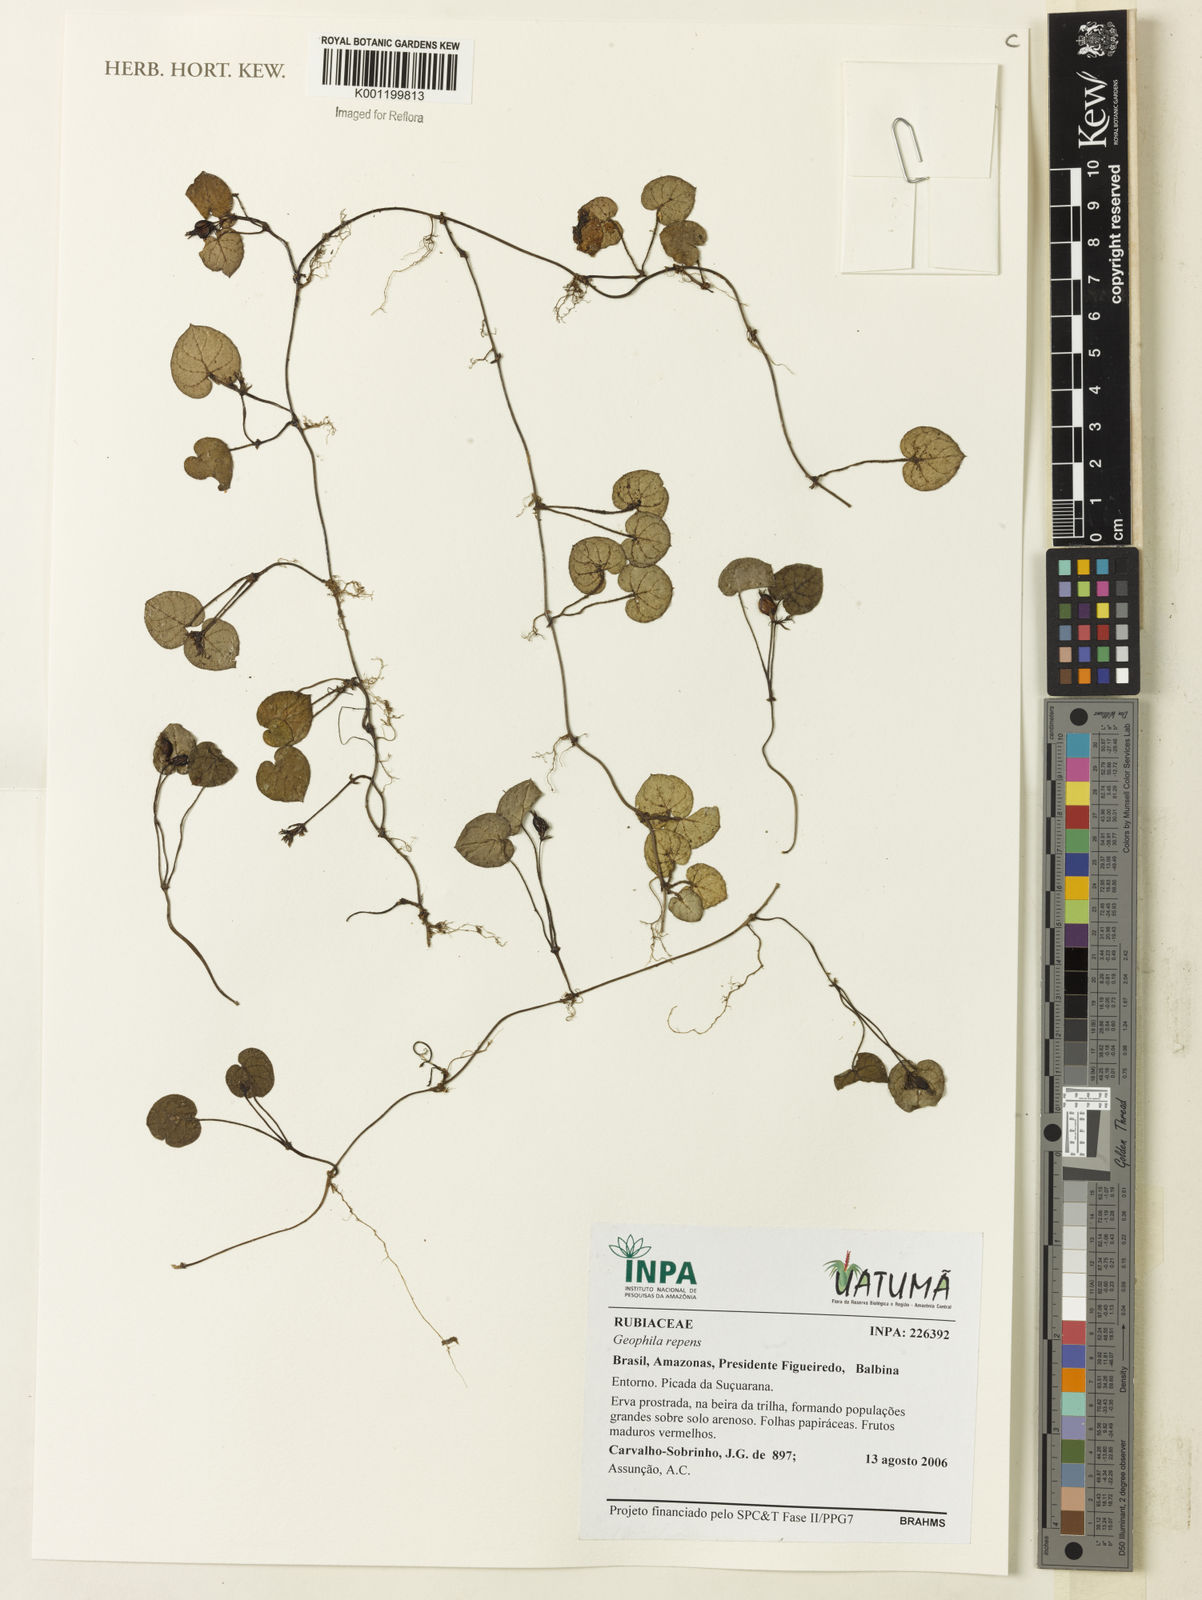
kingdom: Plantae
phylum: Tracheophyta
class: Magnoliopsida
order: Gentianales
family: Rubiaceae
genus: Geophila
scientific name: Geophila repens
